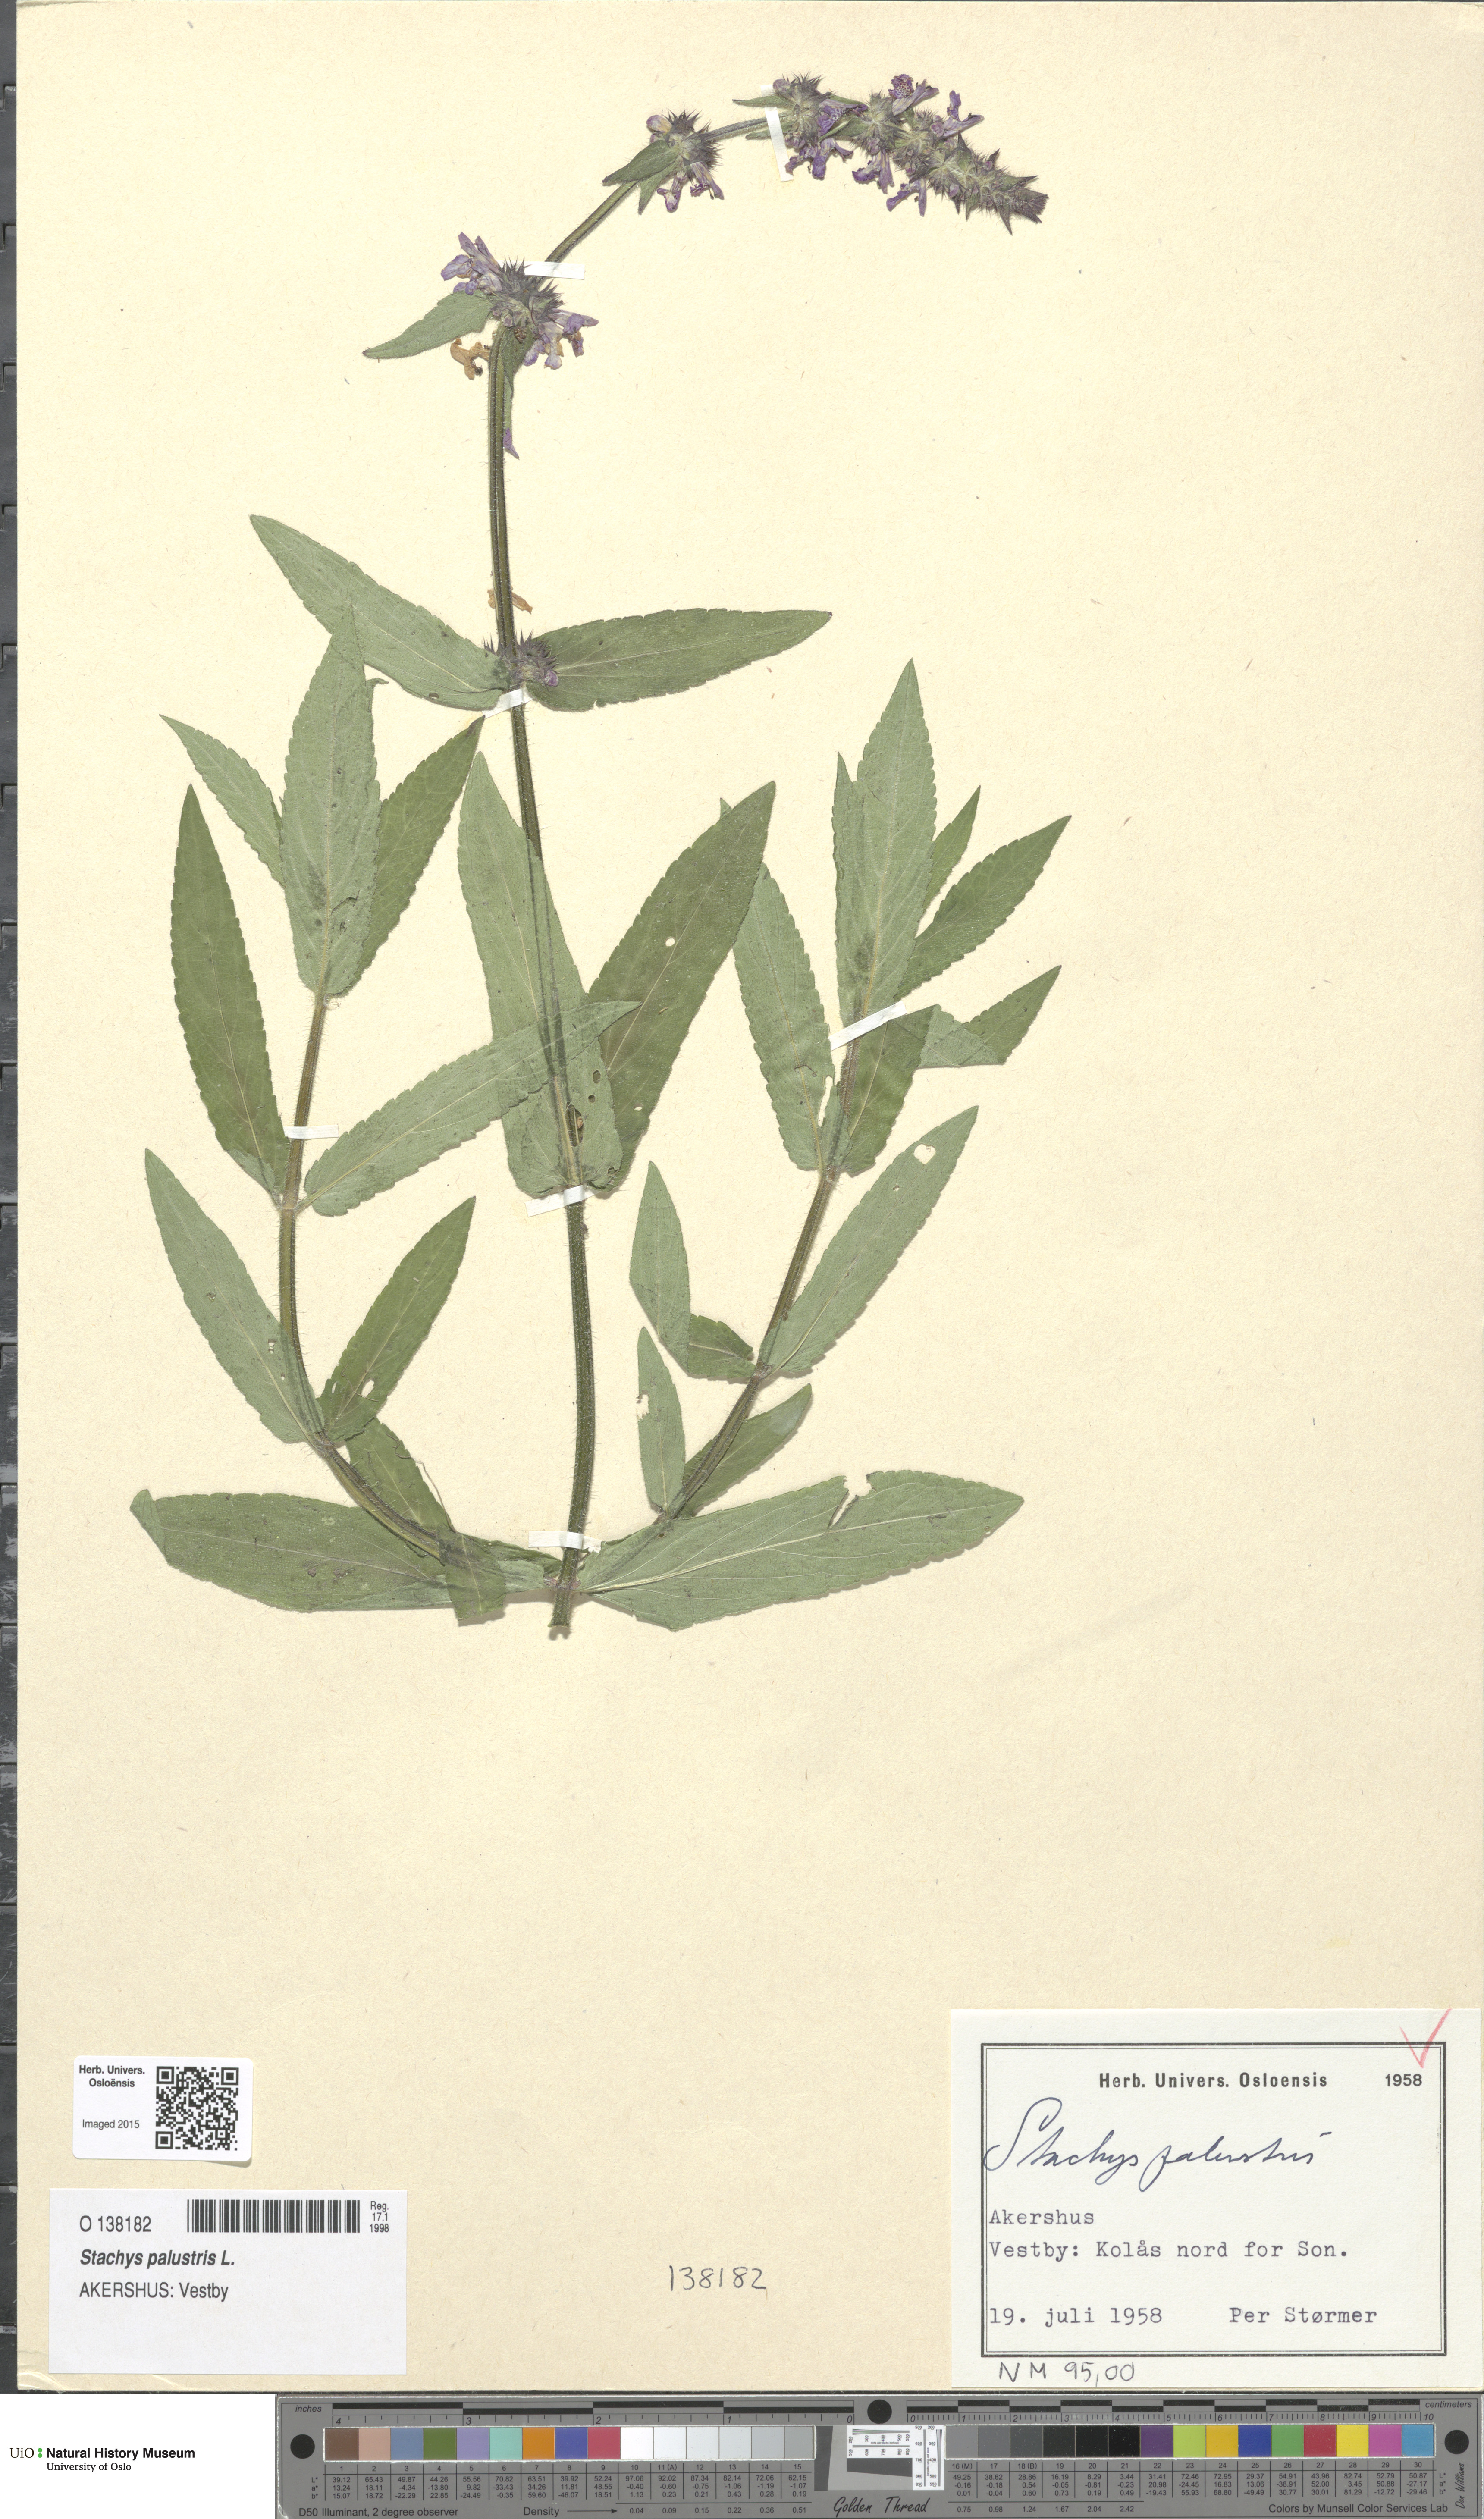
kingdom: Plantae
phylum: Tracheophyta
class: Magnoliopsida
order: Lamiales
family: Lamiaceae
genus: Stachys
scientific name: Stachys palustris
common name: Marsh woundwort
